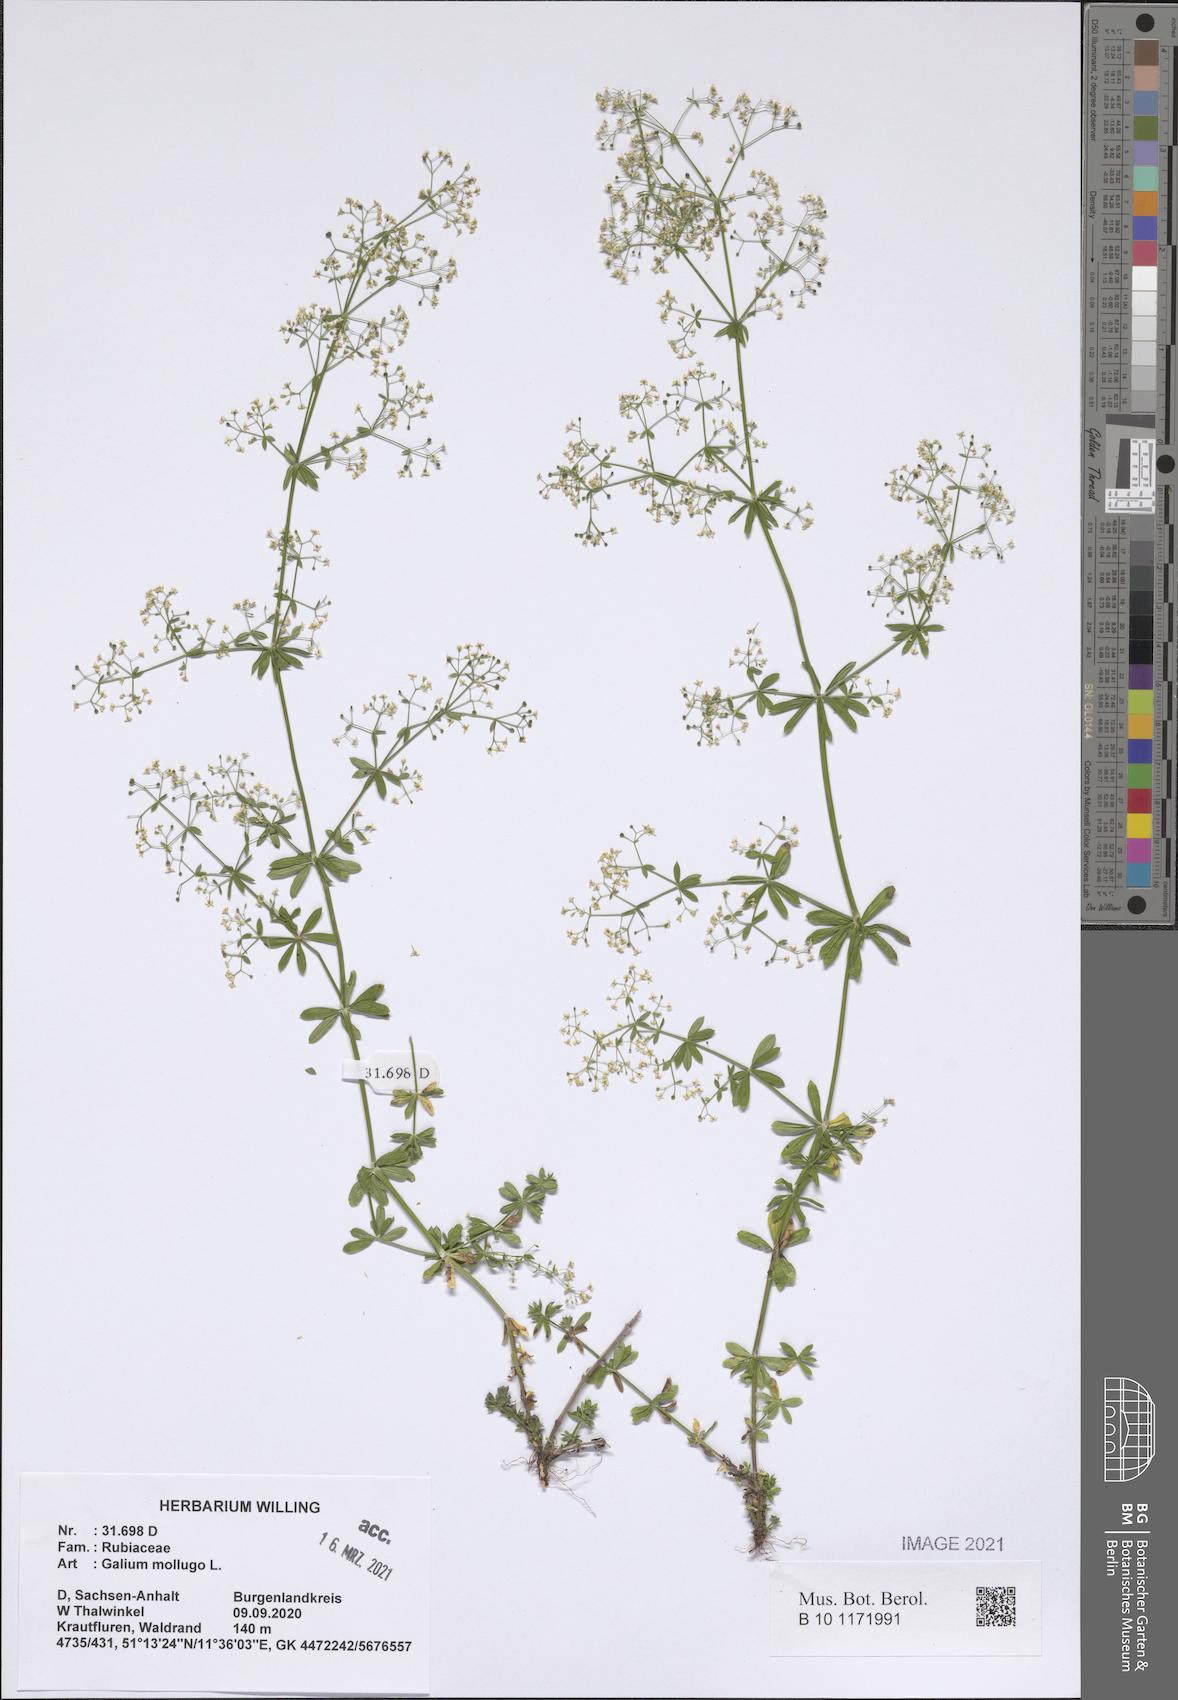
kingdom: Plantae
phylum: Tracheophyta
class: Magnoliopsida
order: Gentianales
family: Rubiaceae
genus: Galium
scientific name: Galium mollugo
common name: Hedge bedstraw
